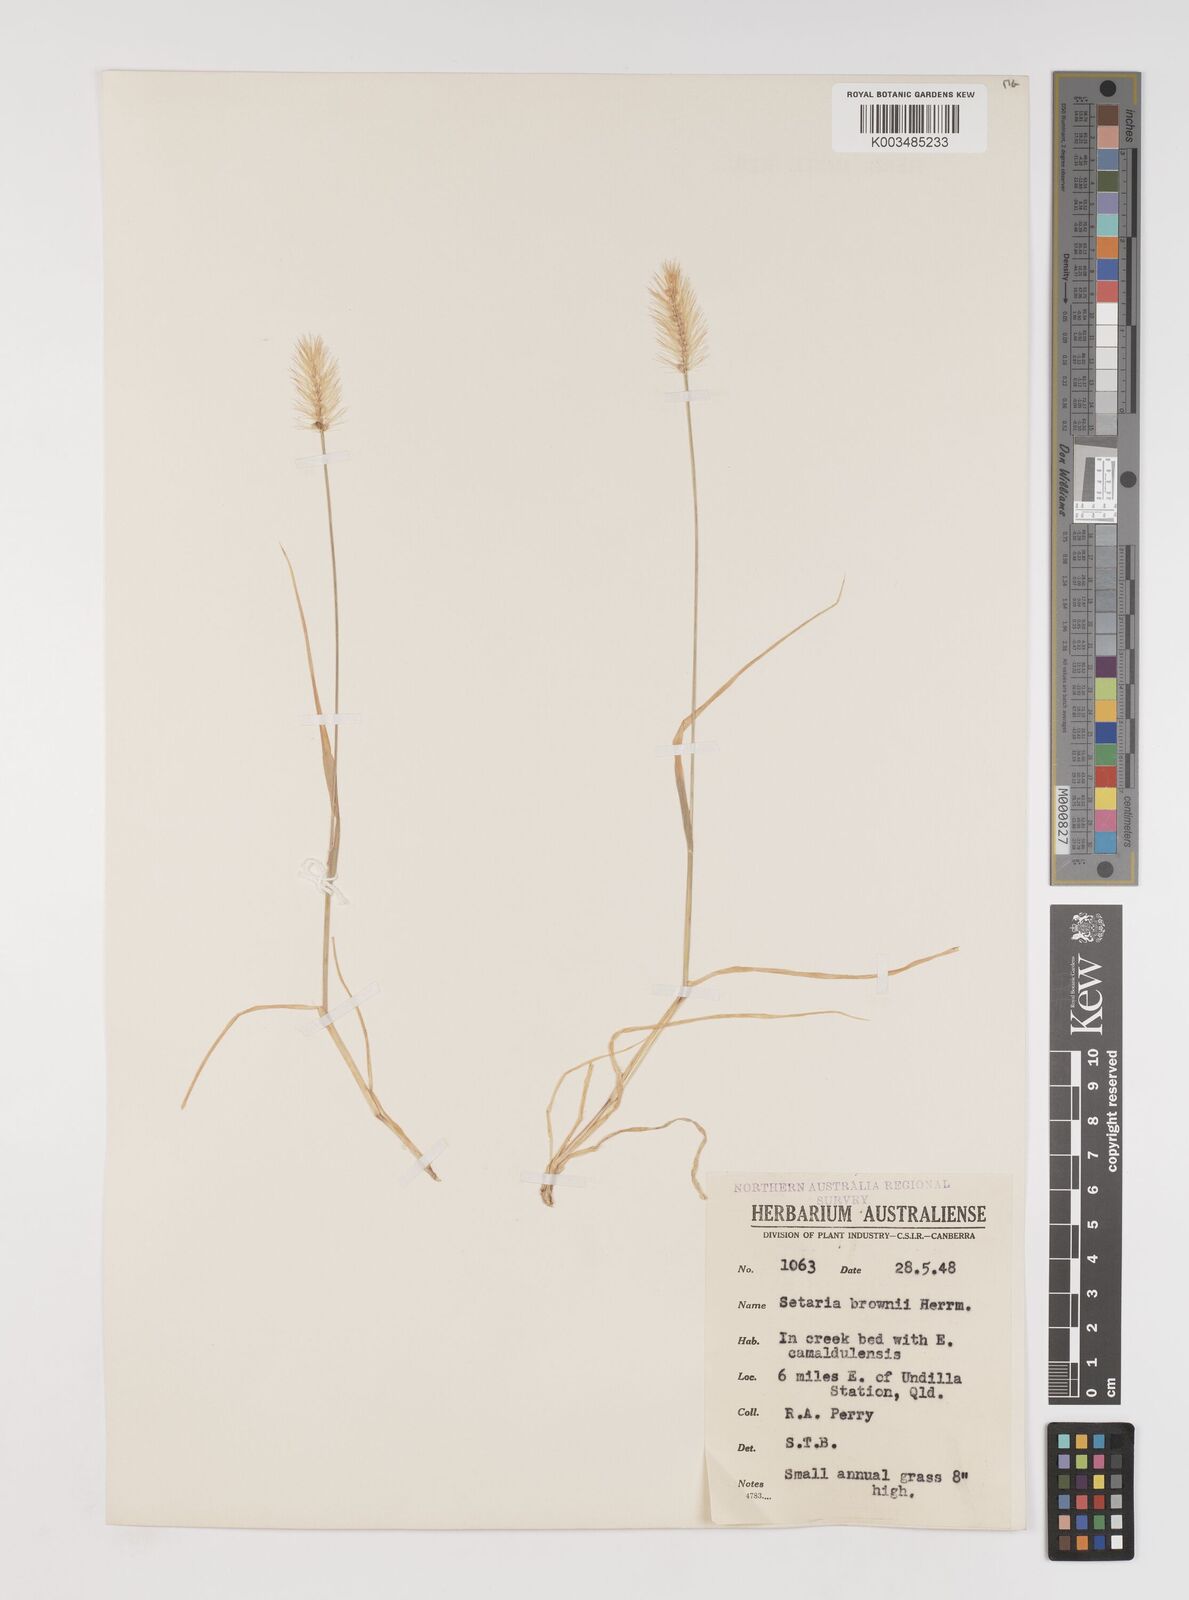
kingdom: Plantae
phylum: Tracheophyta
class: Liliopsida
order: Poales
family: Poaceae
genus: Setaria
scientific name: Setaria surgens
